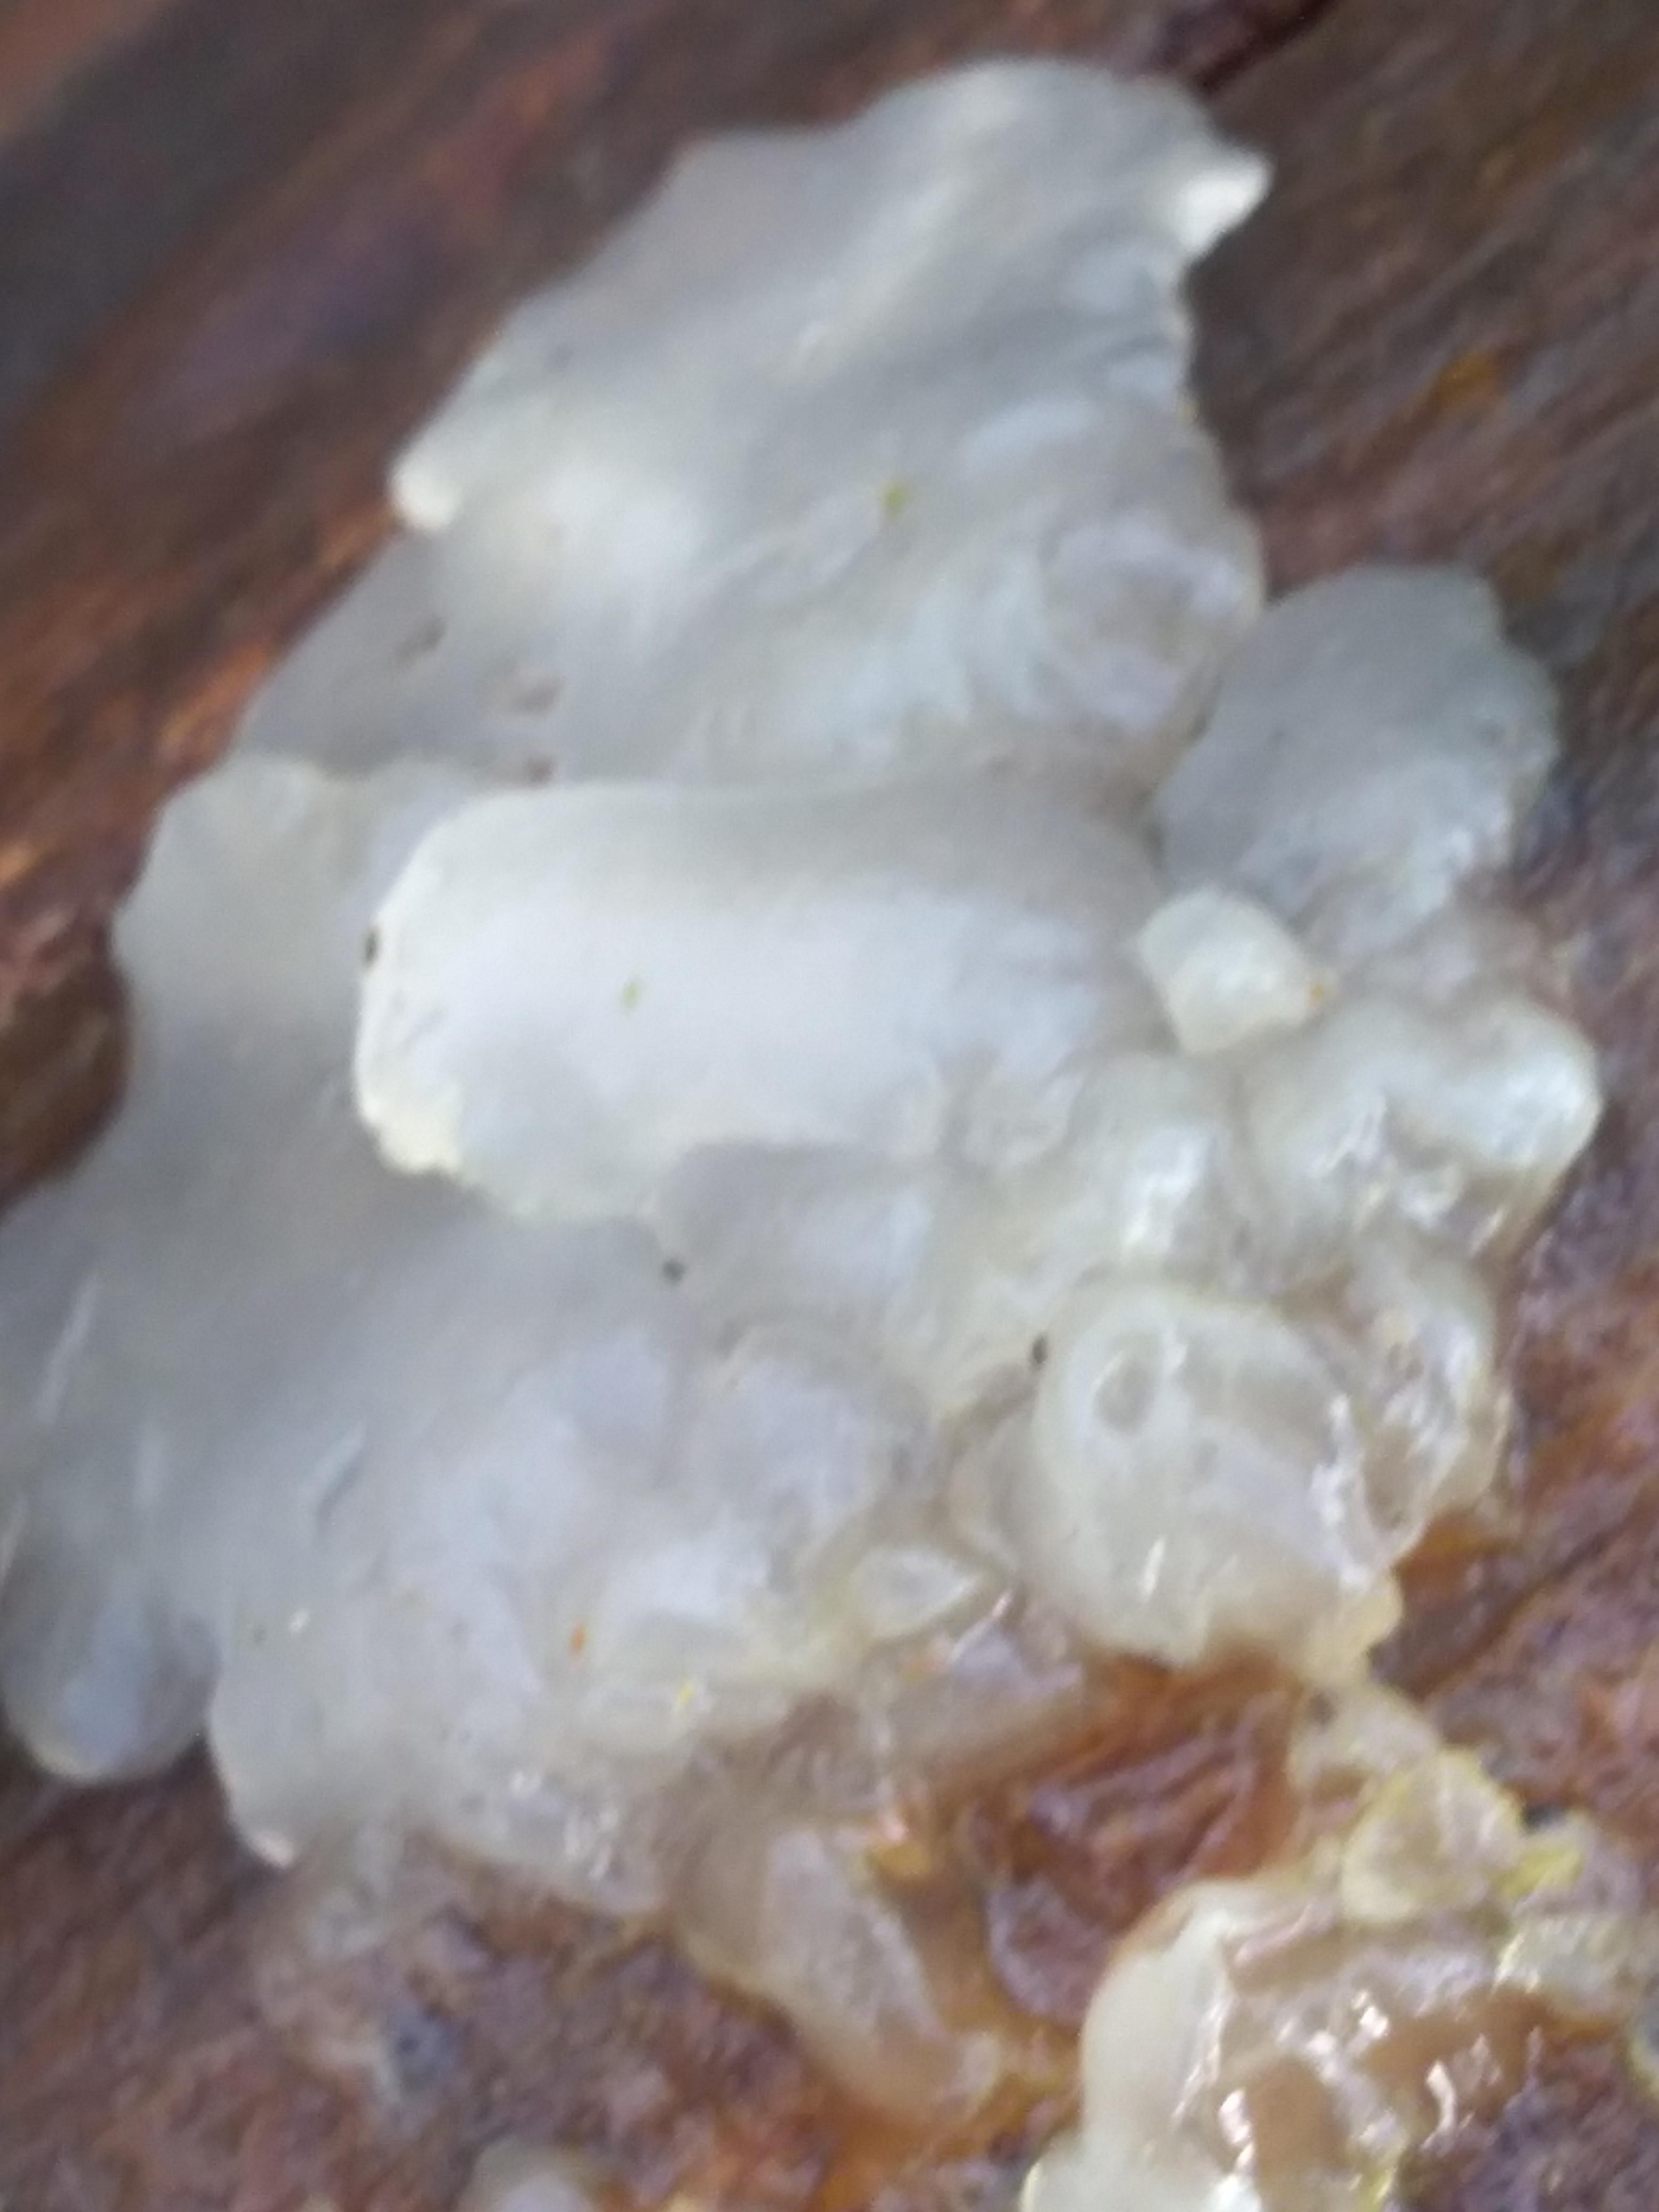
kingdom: Fungi
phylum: Basidiomycota
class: Agaricomycetes
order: Auriculariales
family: Auriculariaceae
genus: Exidia
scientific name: Exidia thuretiana
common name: hvidlig bævretop
